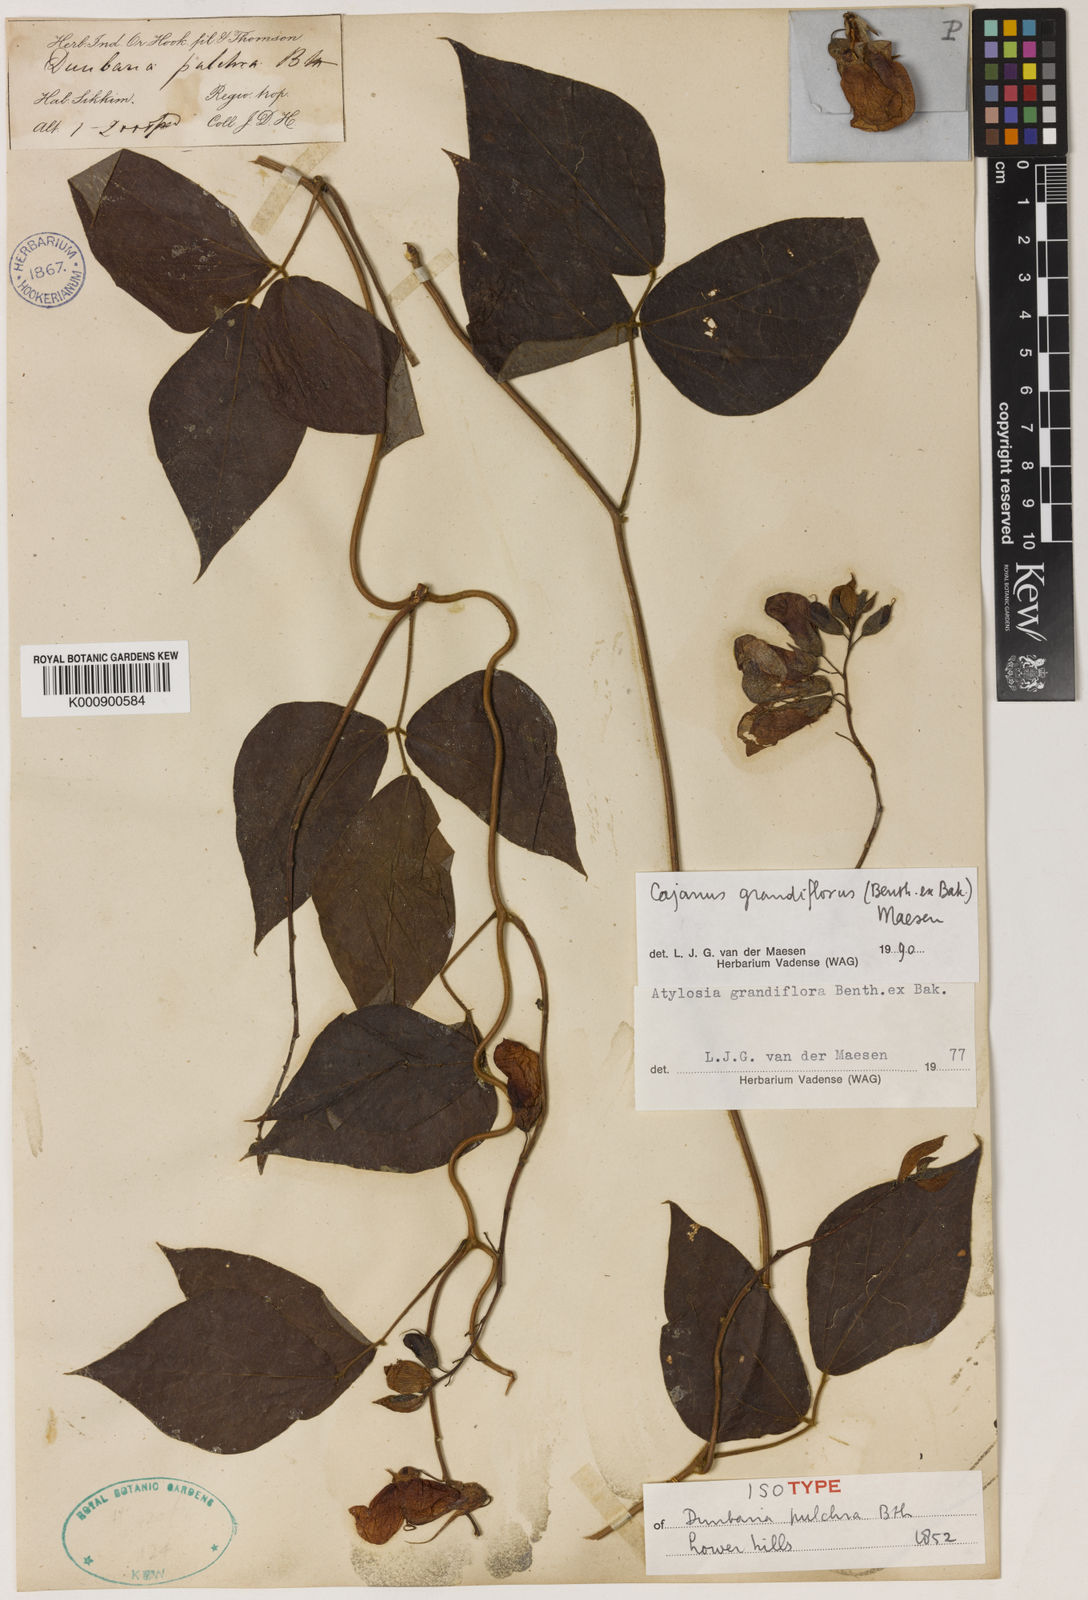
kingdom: Plantae
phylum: Tracheophyta
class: Magnoliopsida
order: Fabales
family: Fabaceae
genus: Cajanus
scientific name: Cajanus grandiflorus
